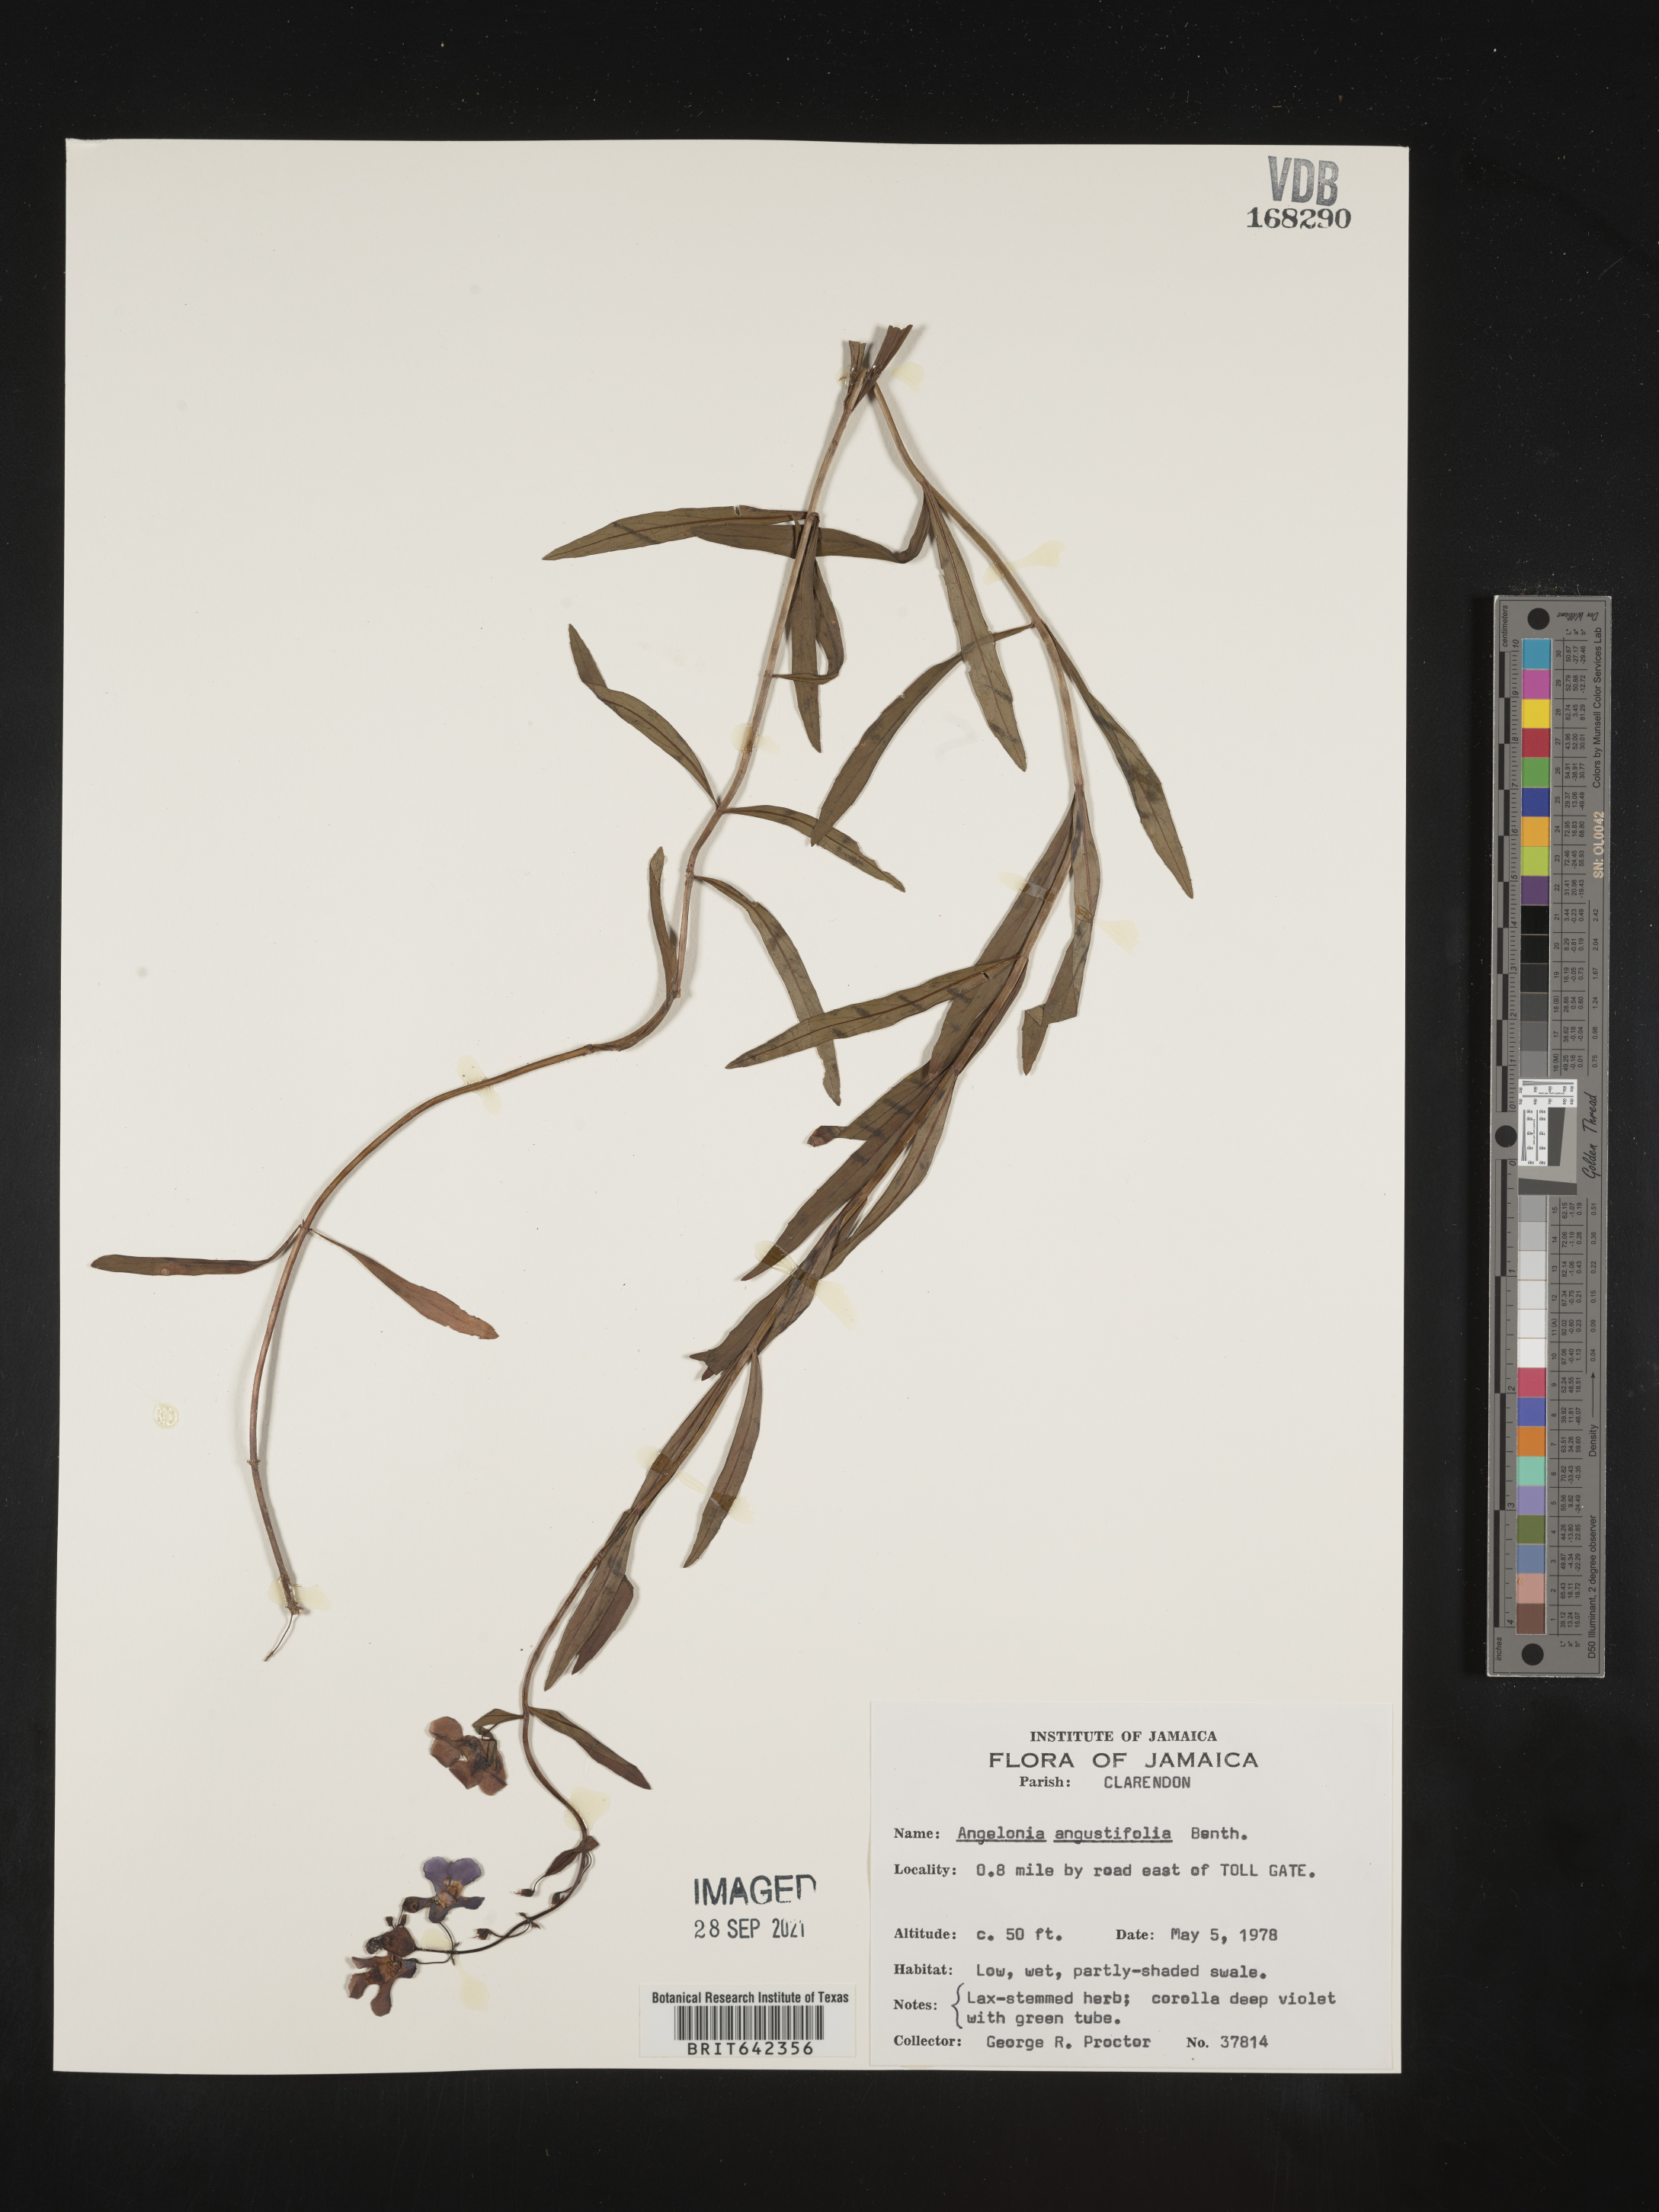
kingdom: Plantae
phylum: Tracheophyta
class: Magnoliopsida
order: Lamiales
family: Plantaginaceae
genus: Angelonia
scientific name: Angelonia
